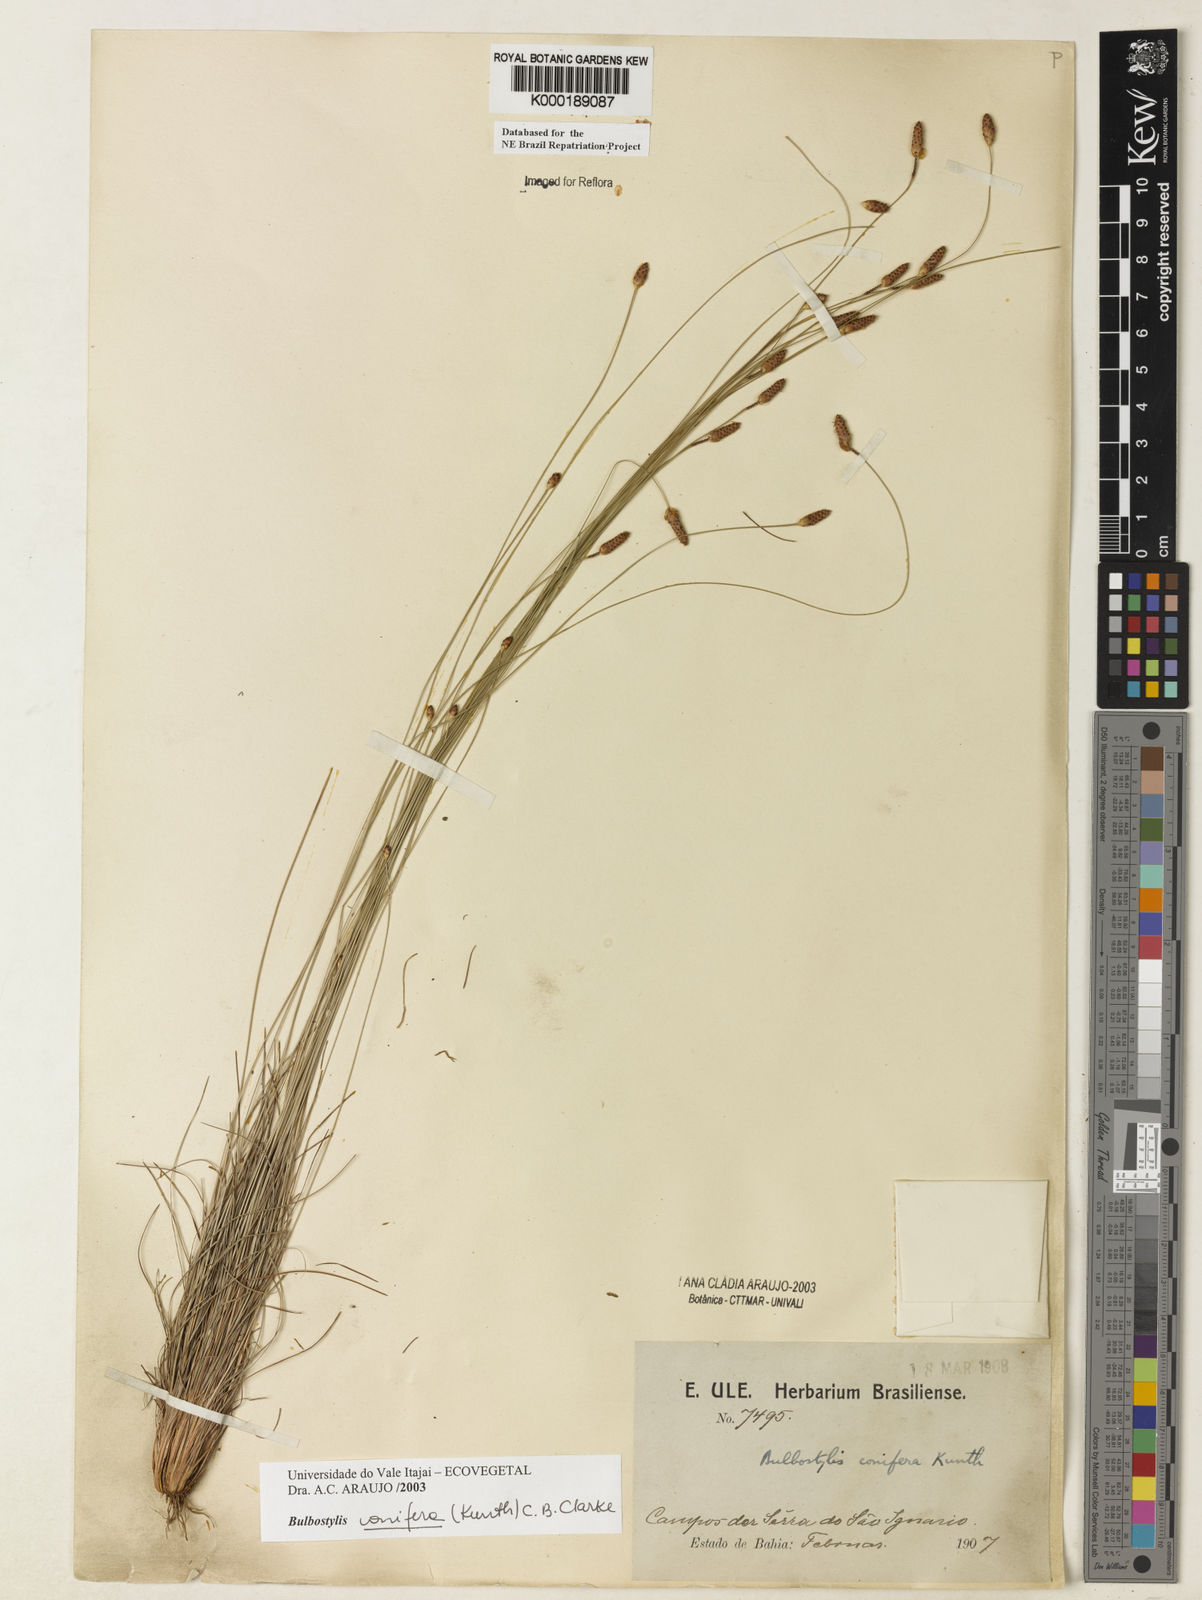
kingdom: Plantae
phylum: Tracheophyta
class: Liliopsida
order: Poales
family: Cyperaceae
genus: Bulbostylis
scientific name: Bulbostylis conifera
